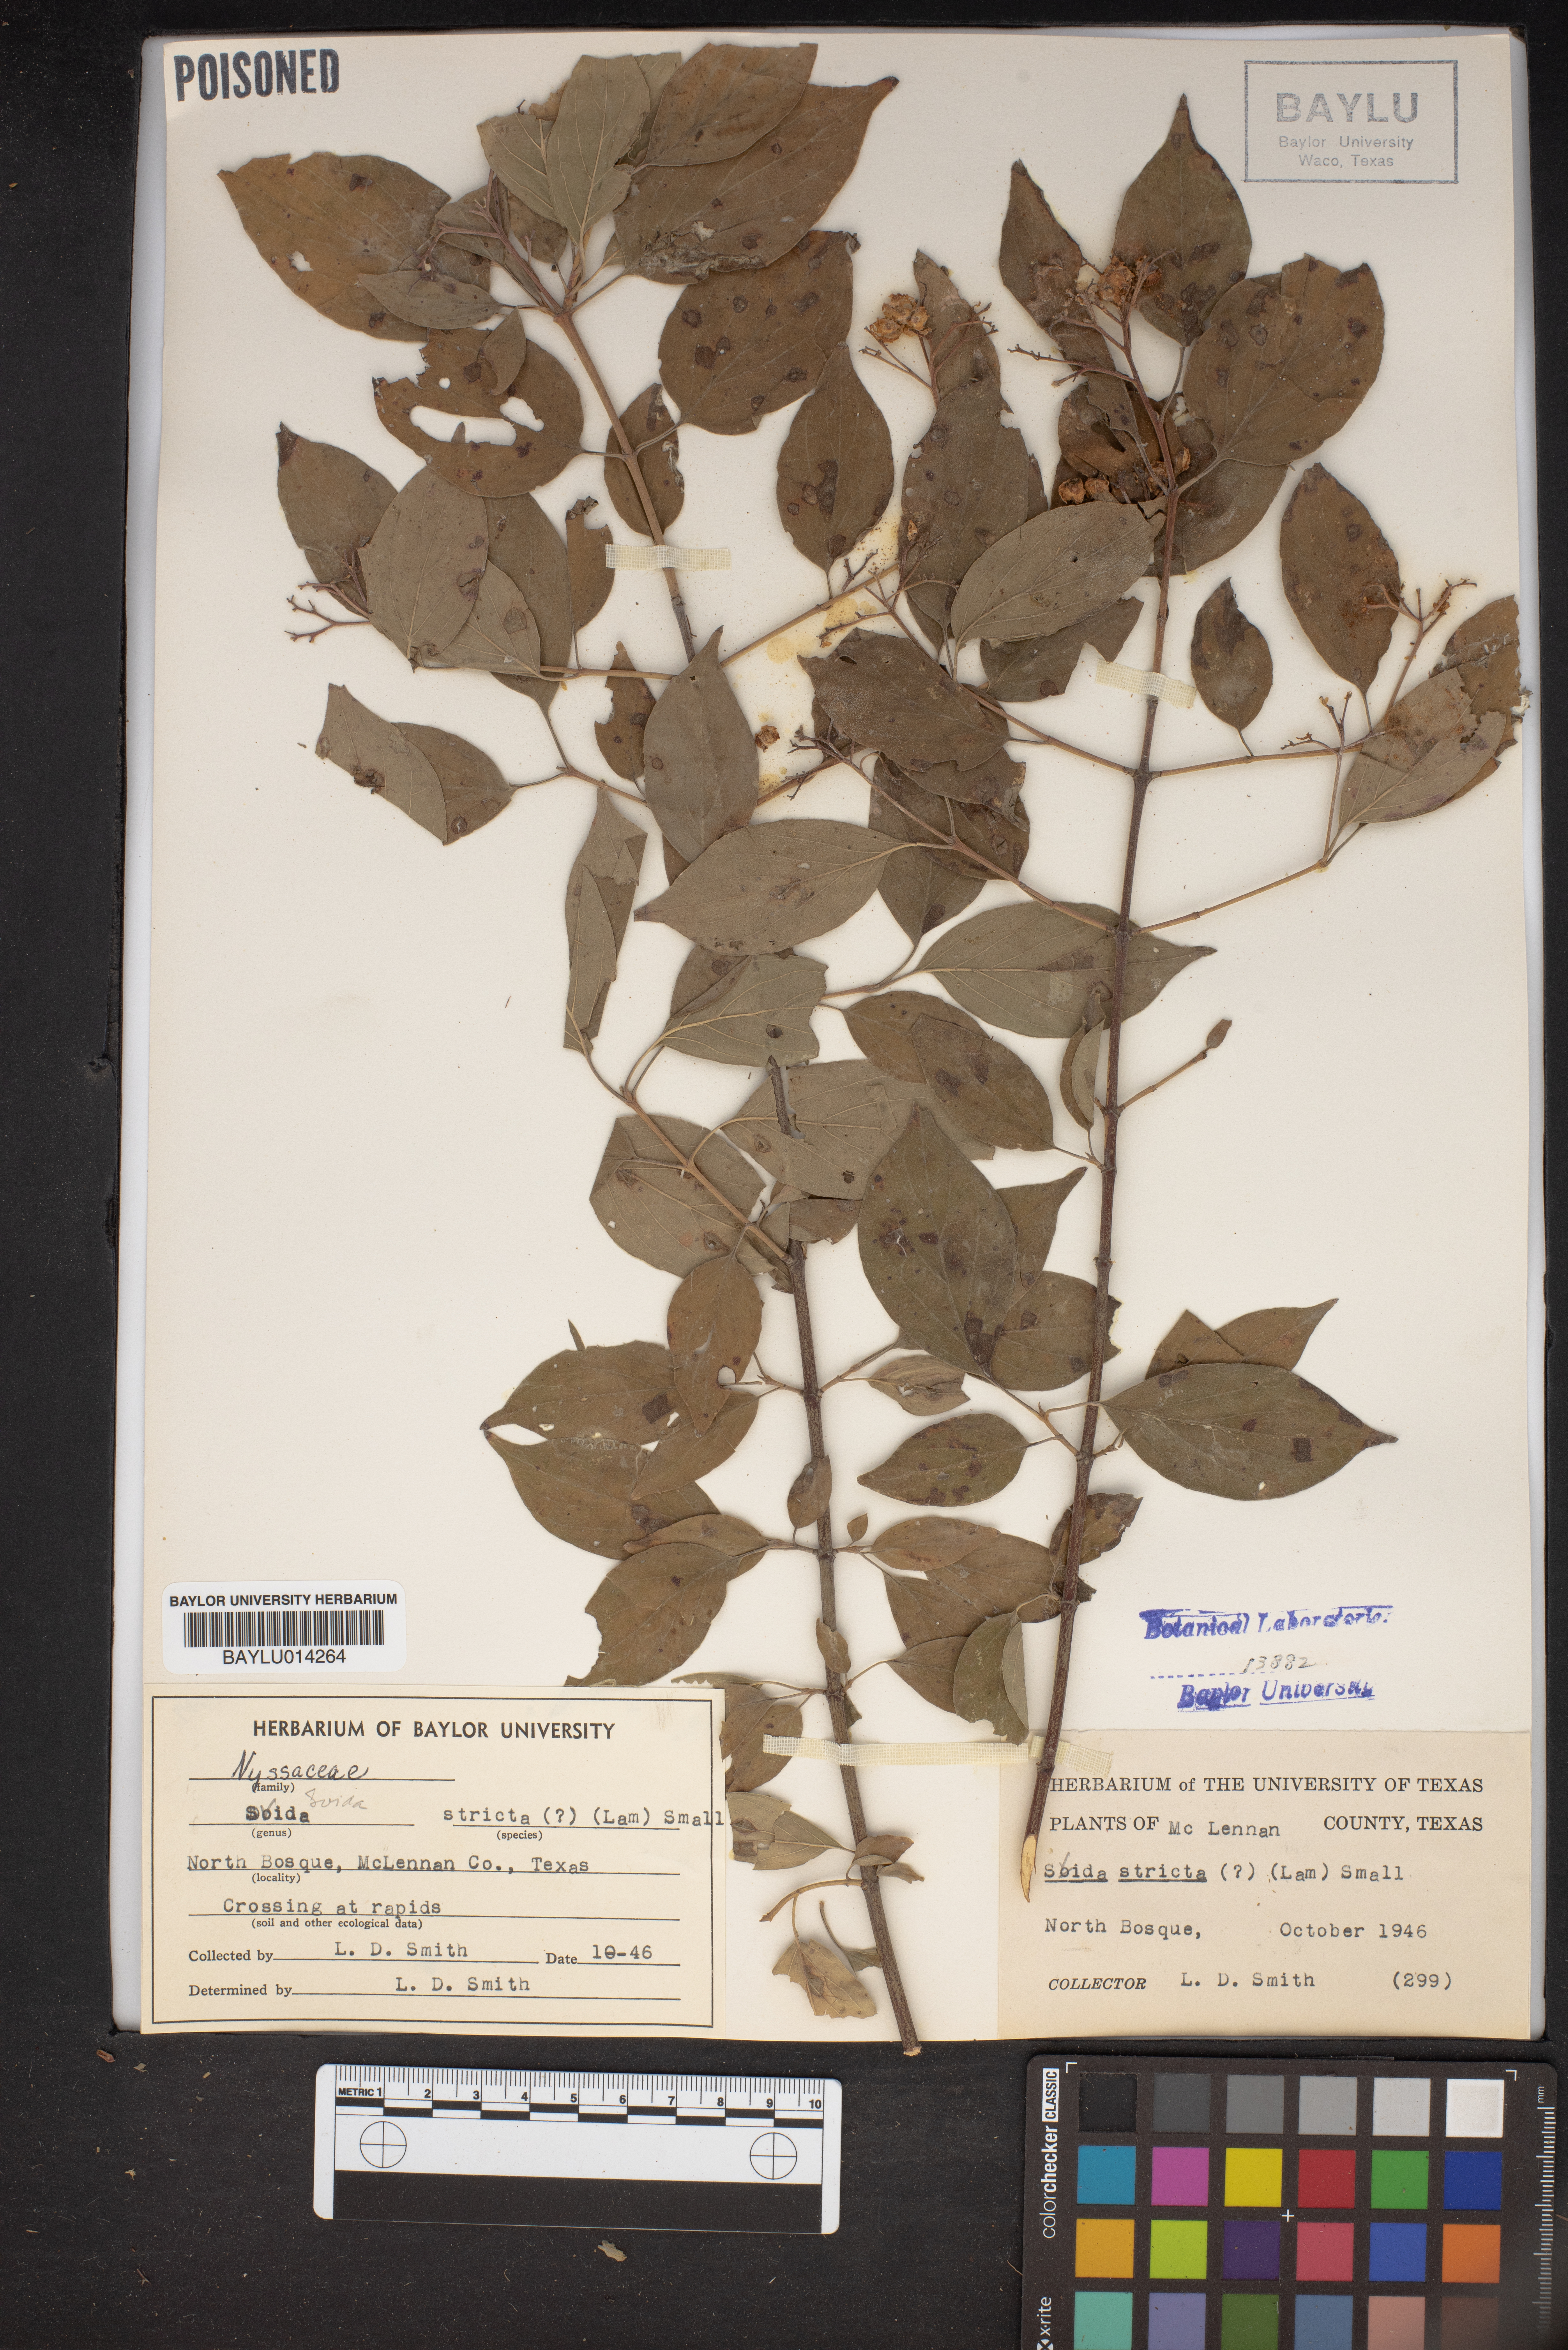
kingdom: Plantae
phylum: Tracheophyta
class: Magnoliopsida
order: Malvales
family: Malvaceae
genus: Sidastrum
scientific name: Sidastrum strictum
